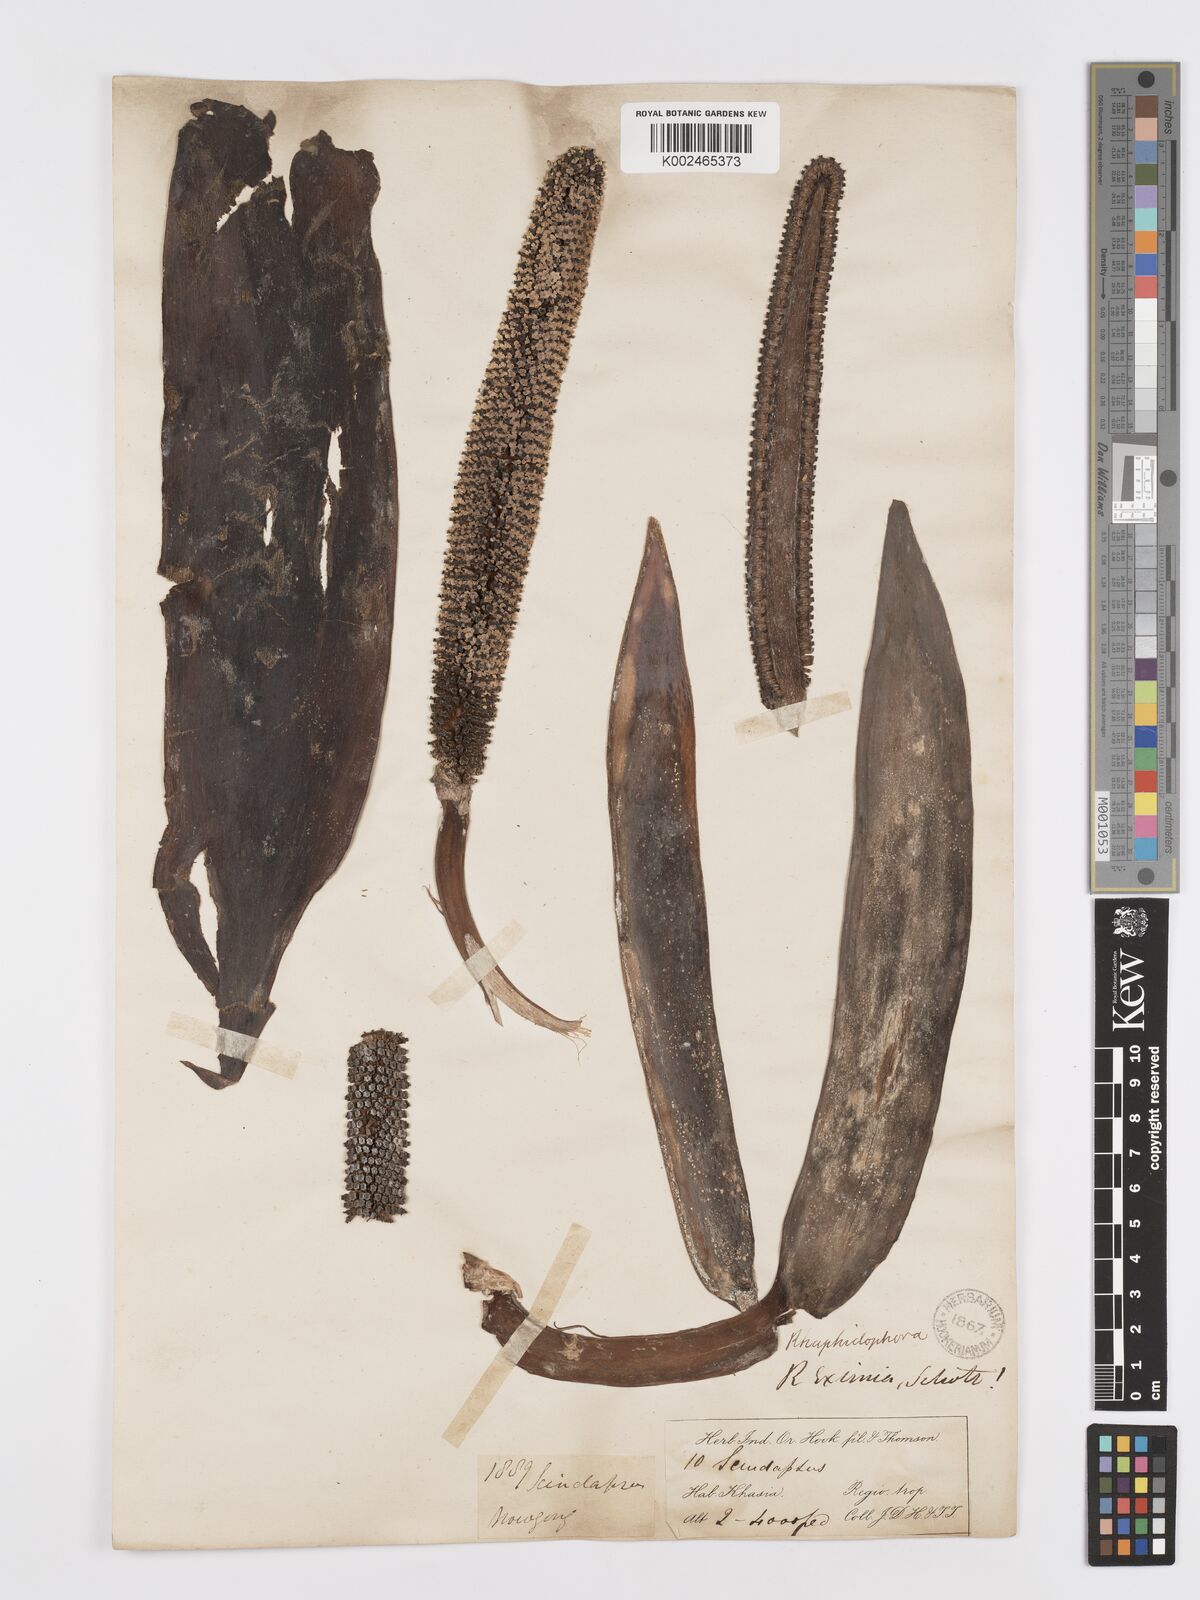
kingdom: Plantae
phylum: Tracheophyta
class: Liliopsida
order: Alismatales
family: Araceae
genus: Rhaphidophora
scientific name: Rhaphidophora decursiva
